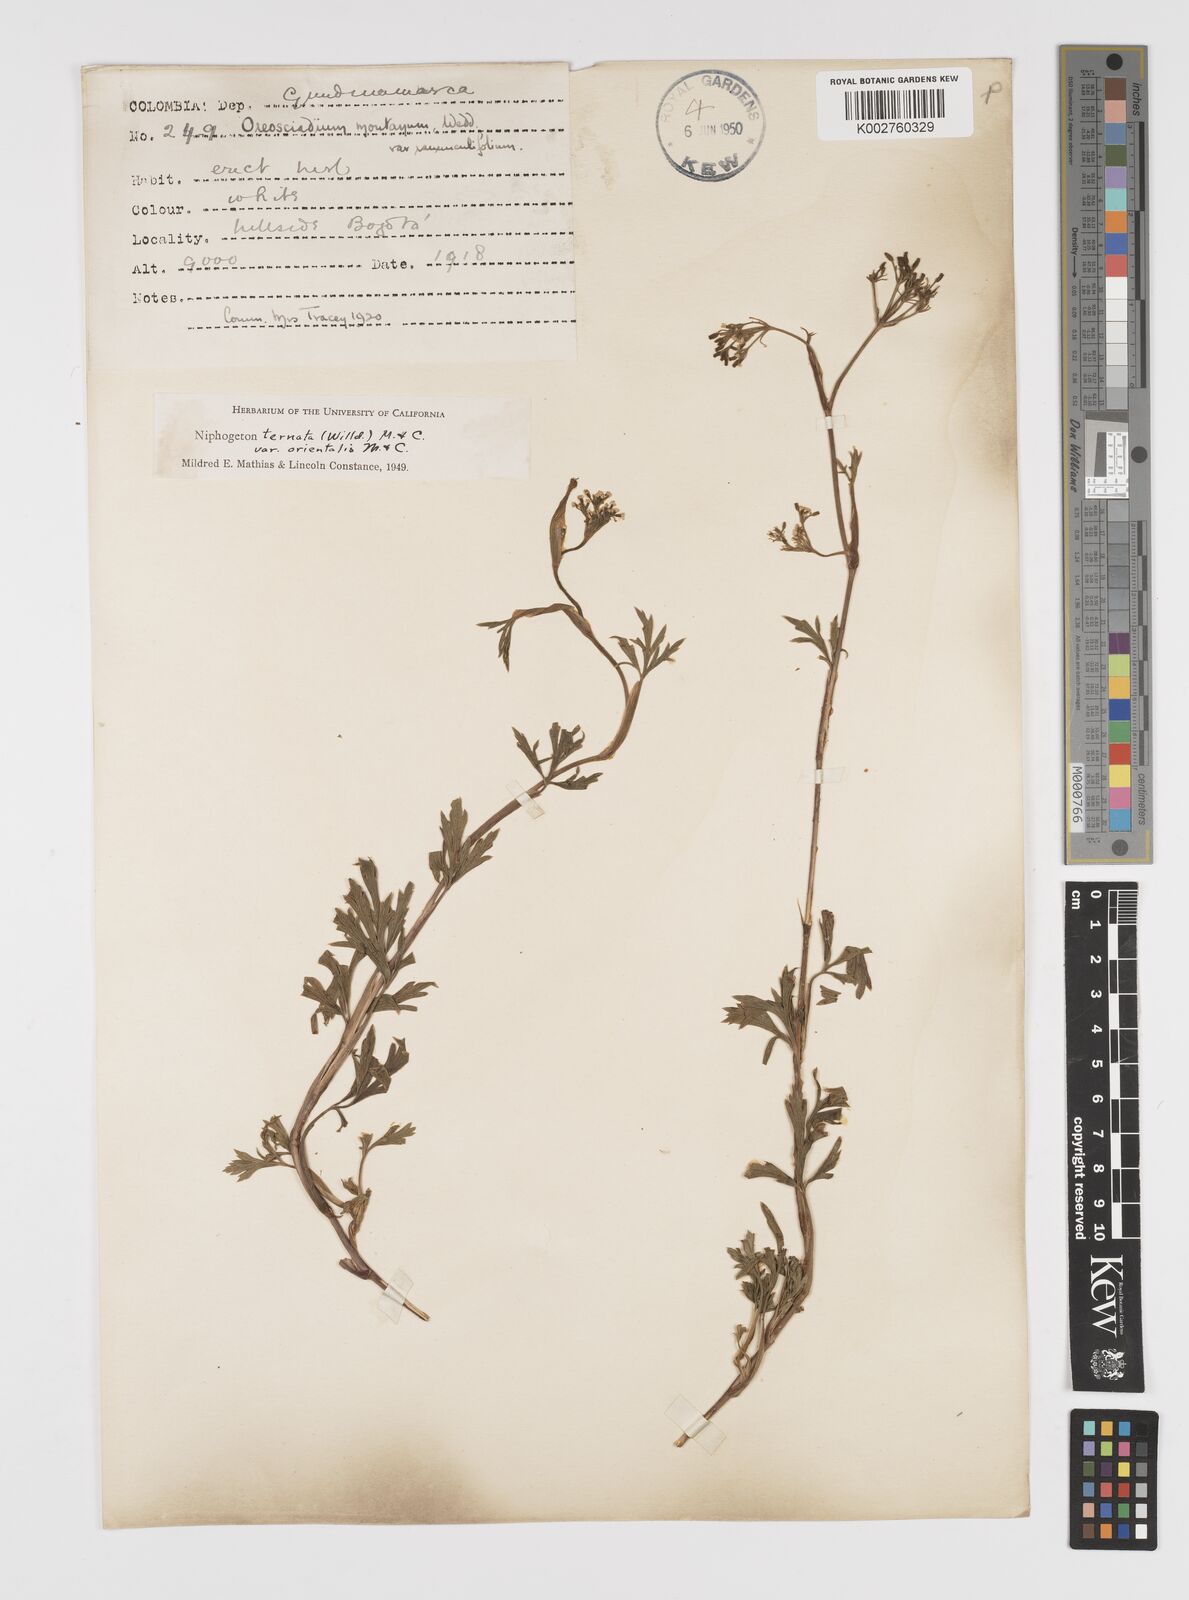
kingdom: Plantae
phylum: Tracheophyta
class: Magnoliopsida
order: Apiales
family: Apiaceae
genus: Niphogeton
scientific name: Niphogeton ternata
